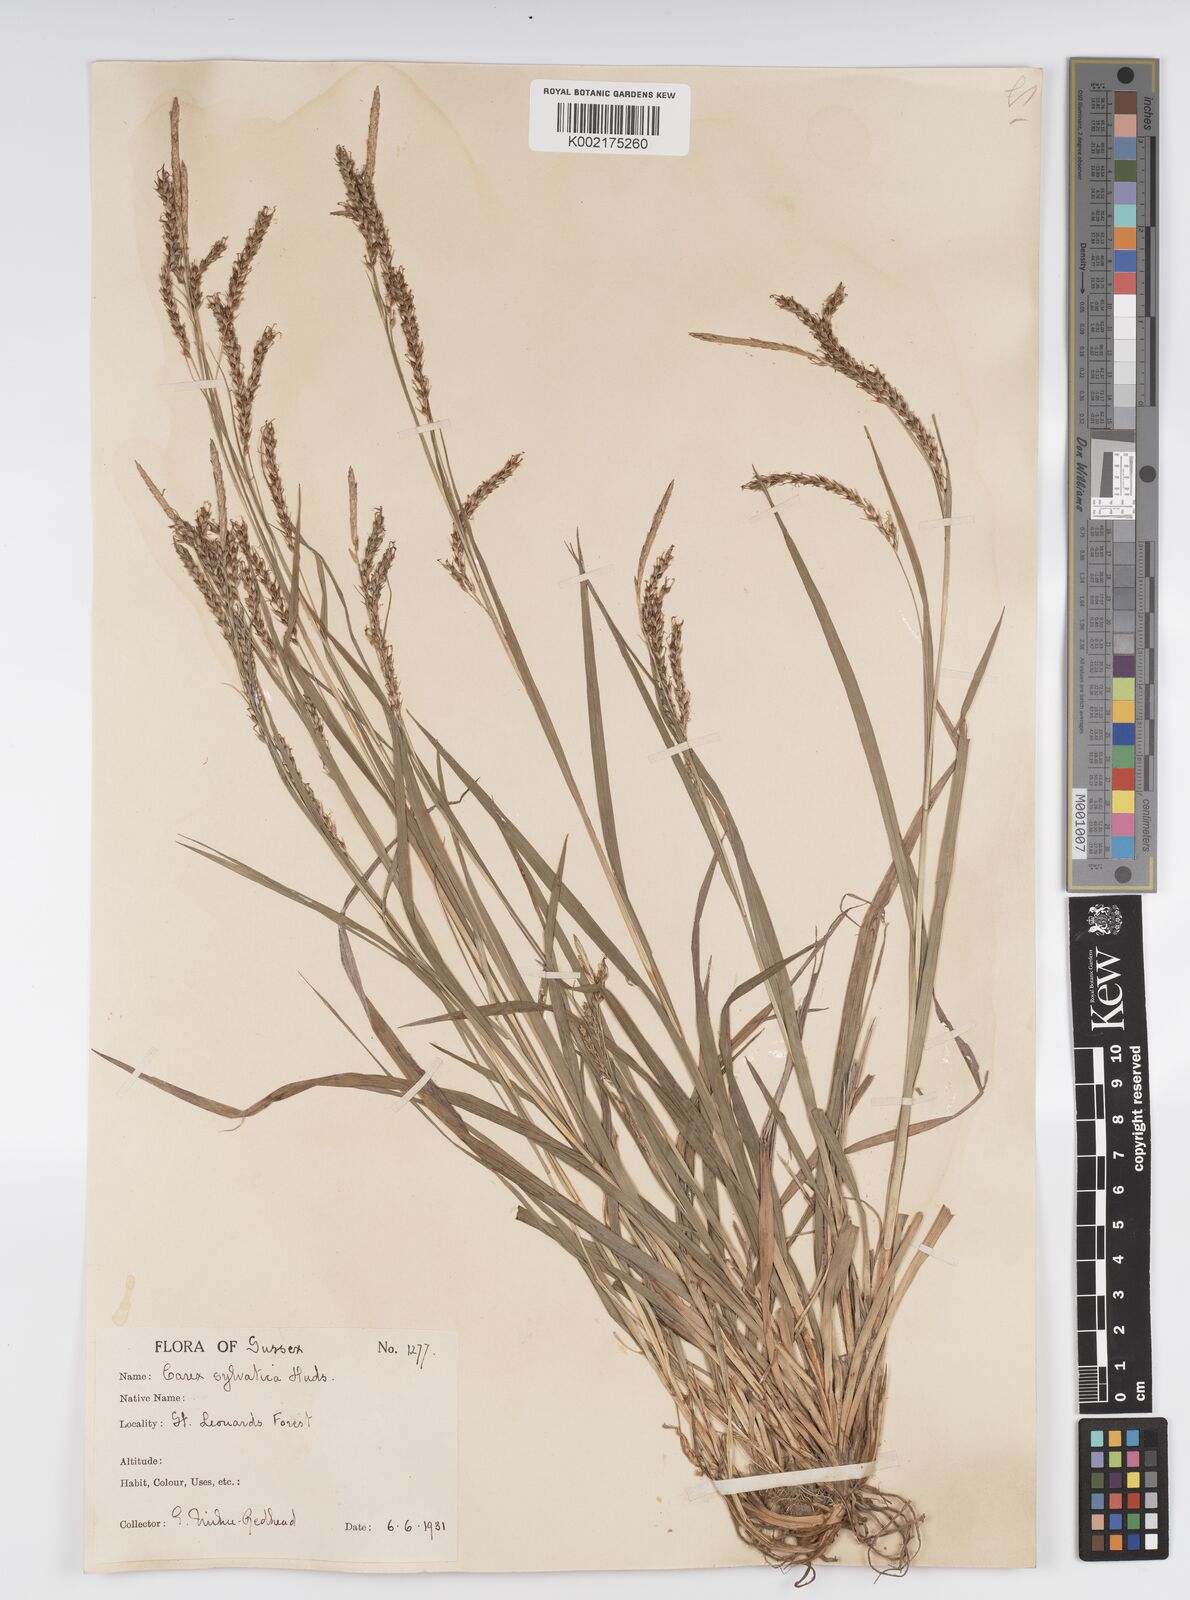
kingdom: Plantae
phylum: Tracheophyta
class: Liliopsida
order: Poales
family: Cyperaceae
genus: Carex
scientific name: Carex sylvatica
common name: Wood-sedge
